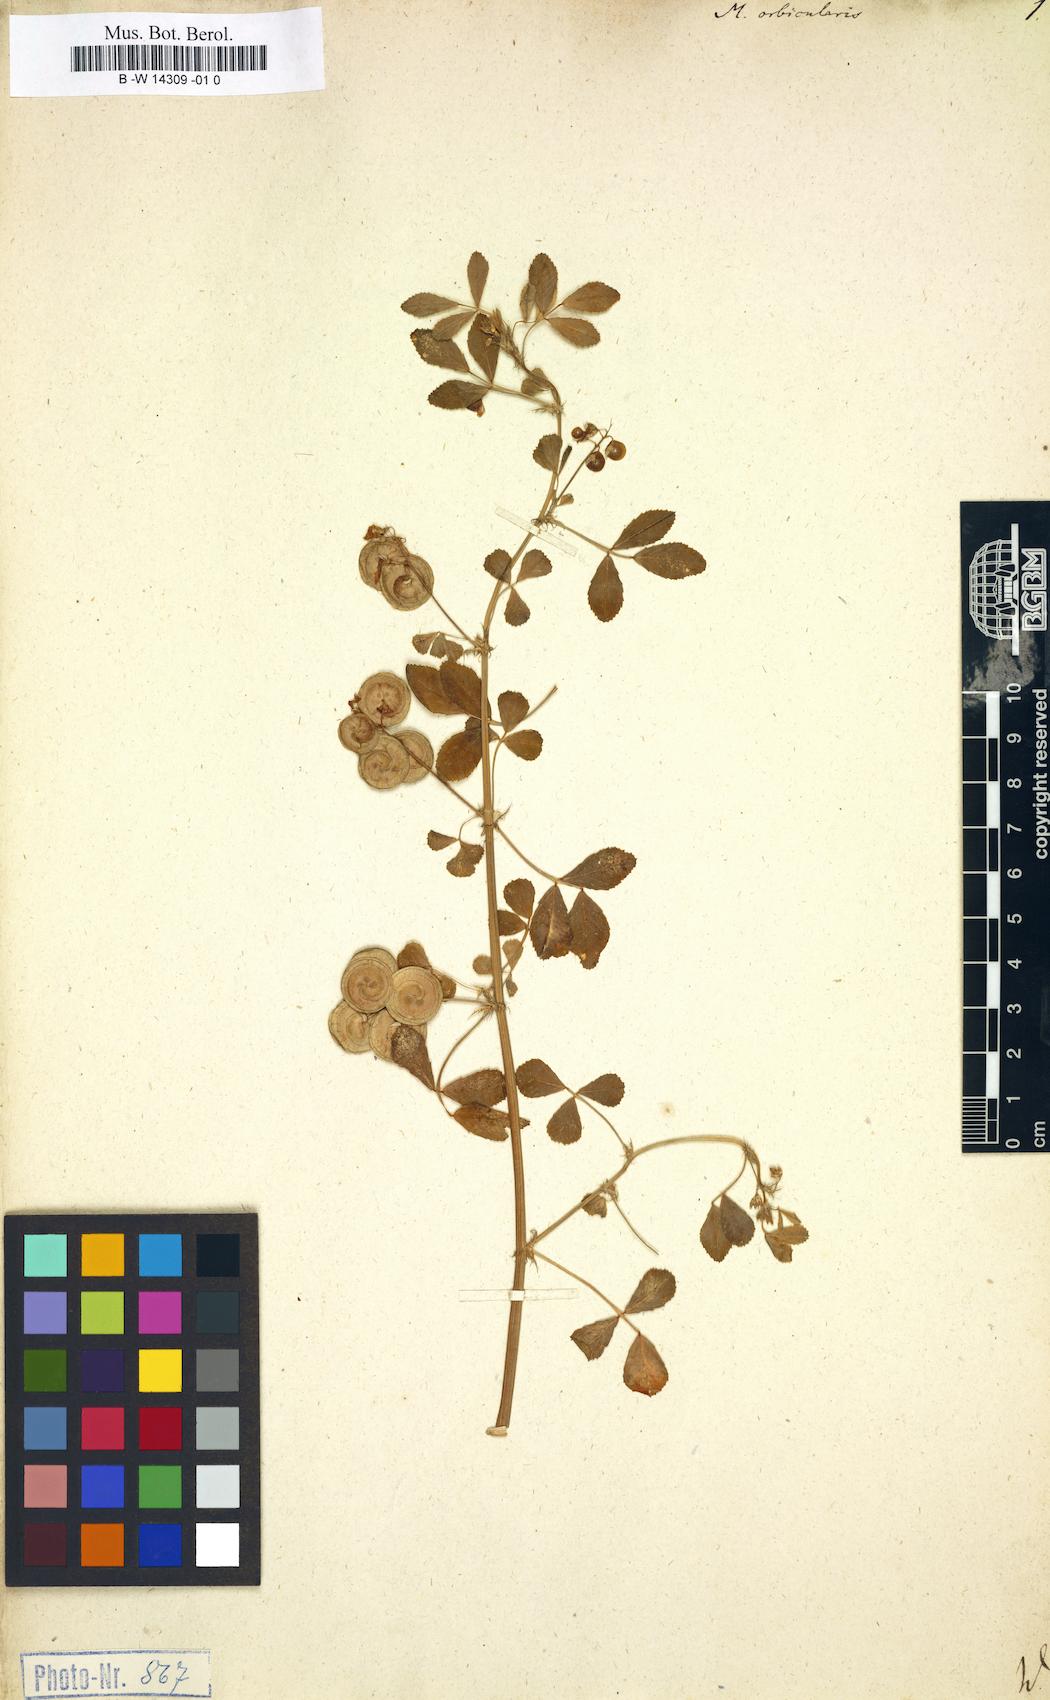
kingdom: Plantae
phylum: Tracheophyta
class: Magnoliopsida
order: Fabales
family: Fabaceae
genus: Medicago
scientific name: Medicago orbicularis
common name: Button medick
